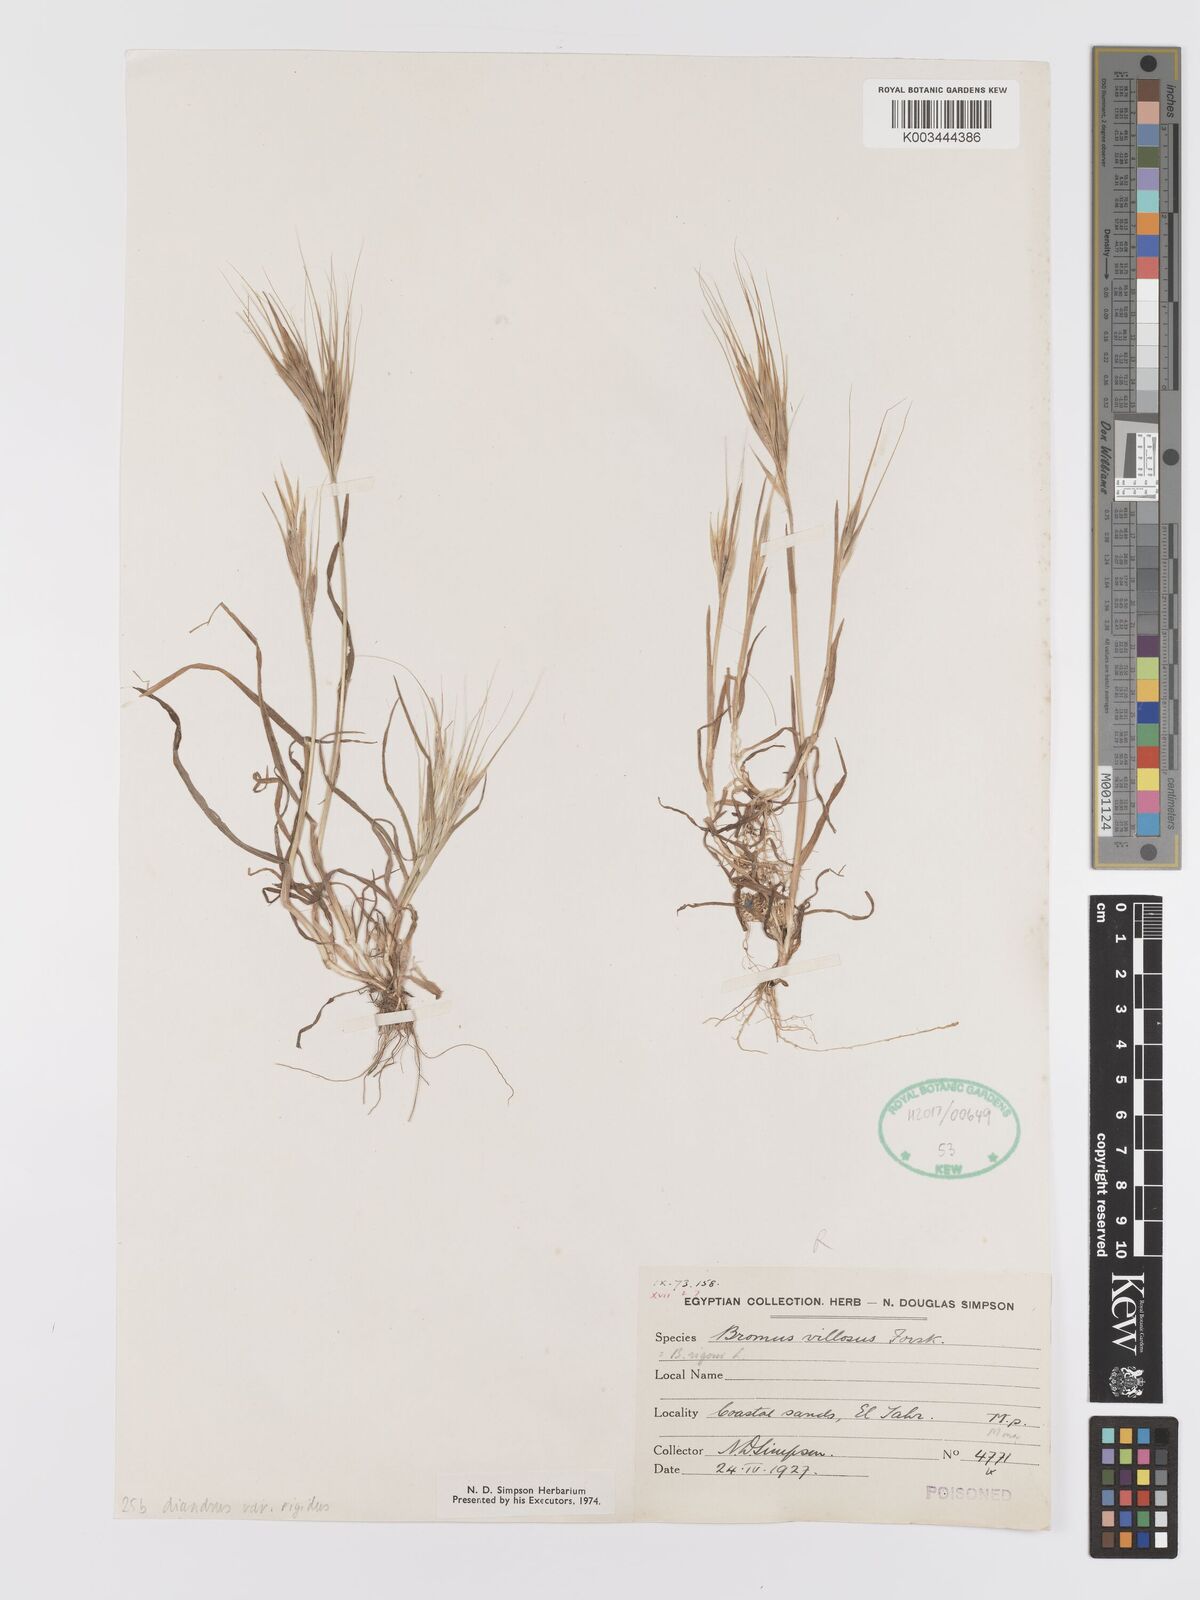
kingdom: Plantae
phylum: Tracheophyta
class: Liliopsida
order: Poales
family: Poaceae
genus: Bromus
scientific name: Bromus
